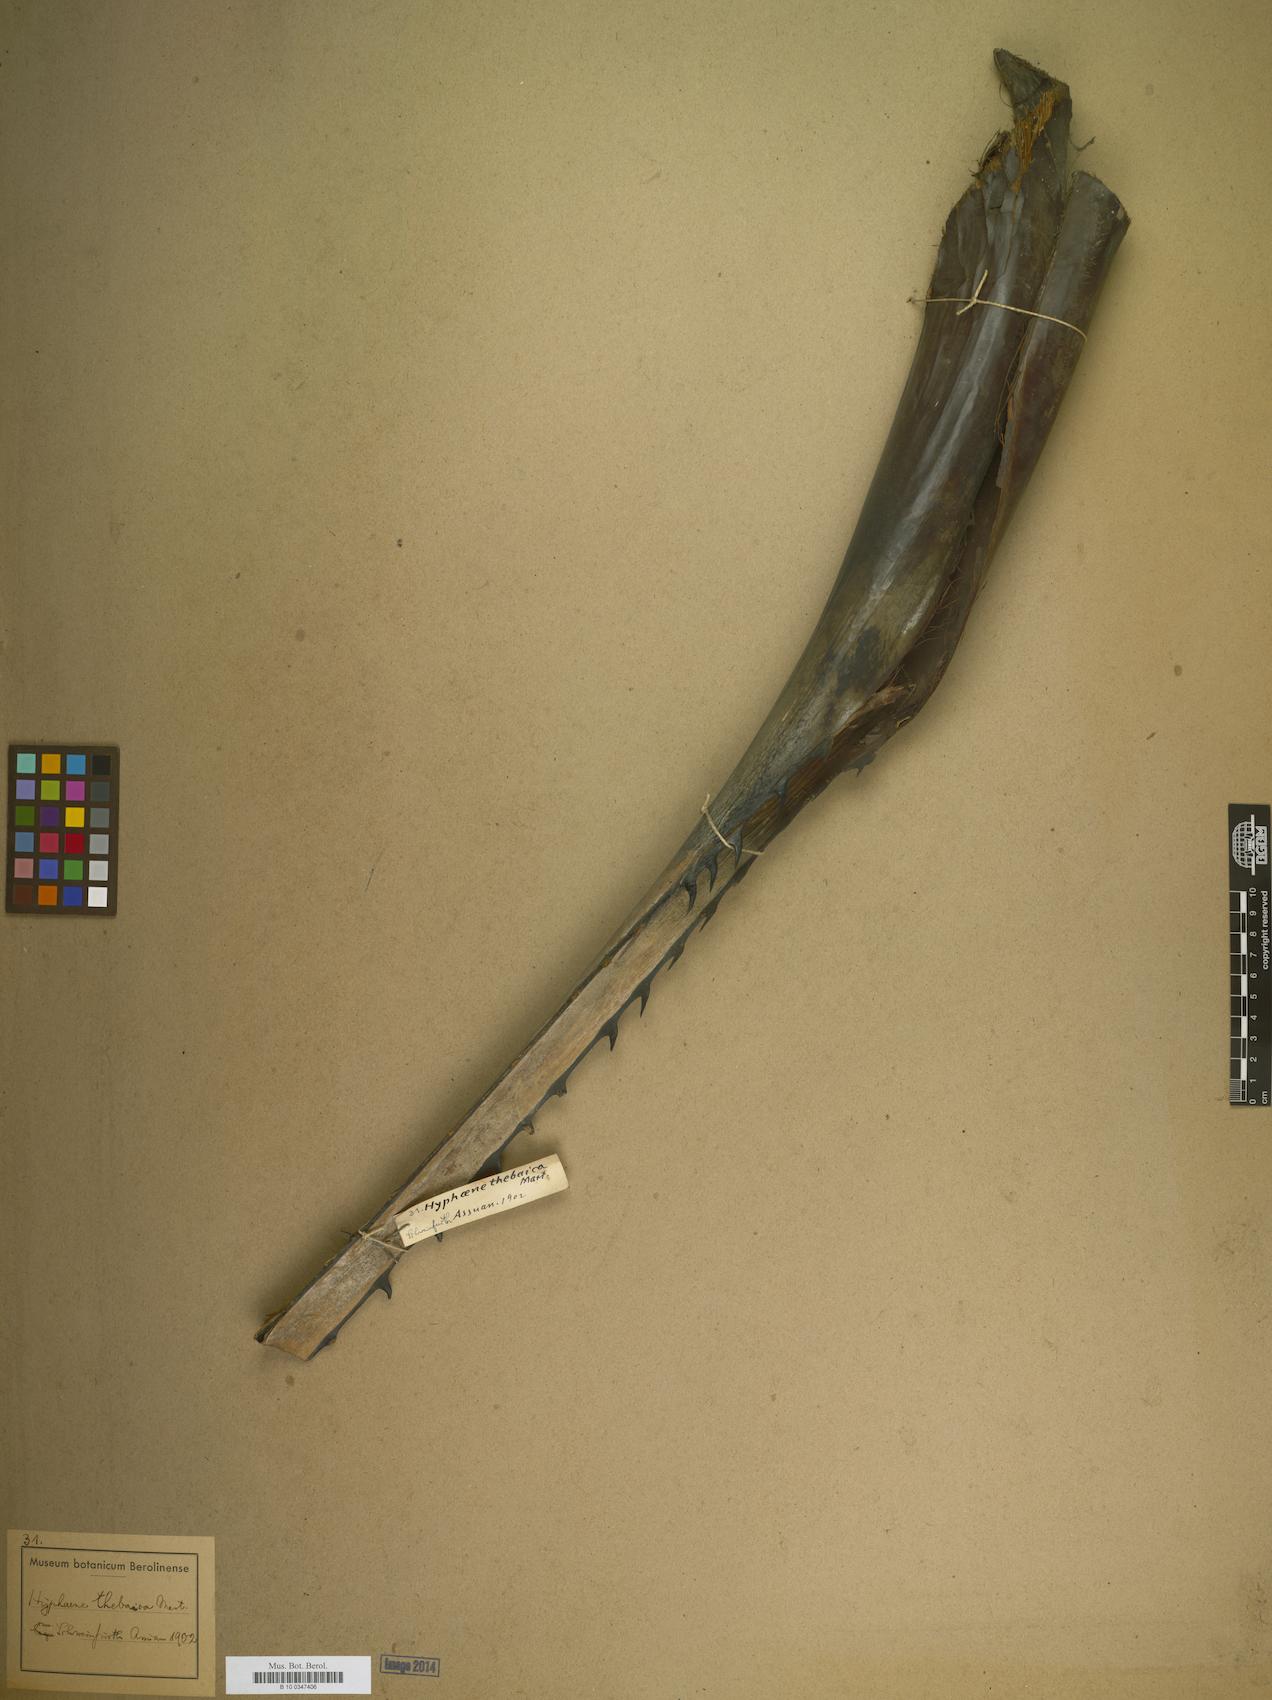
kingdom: Plantae
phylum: Tracheophyta
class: Liliopsida
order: Arecales
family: Arecaceae
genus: Hyphaene
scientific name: Hyphaene
